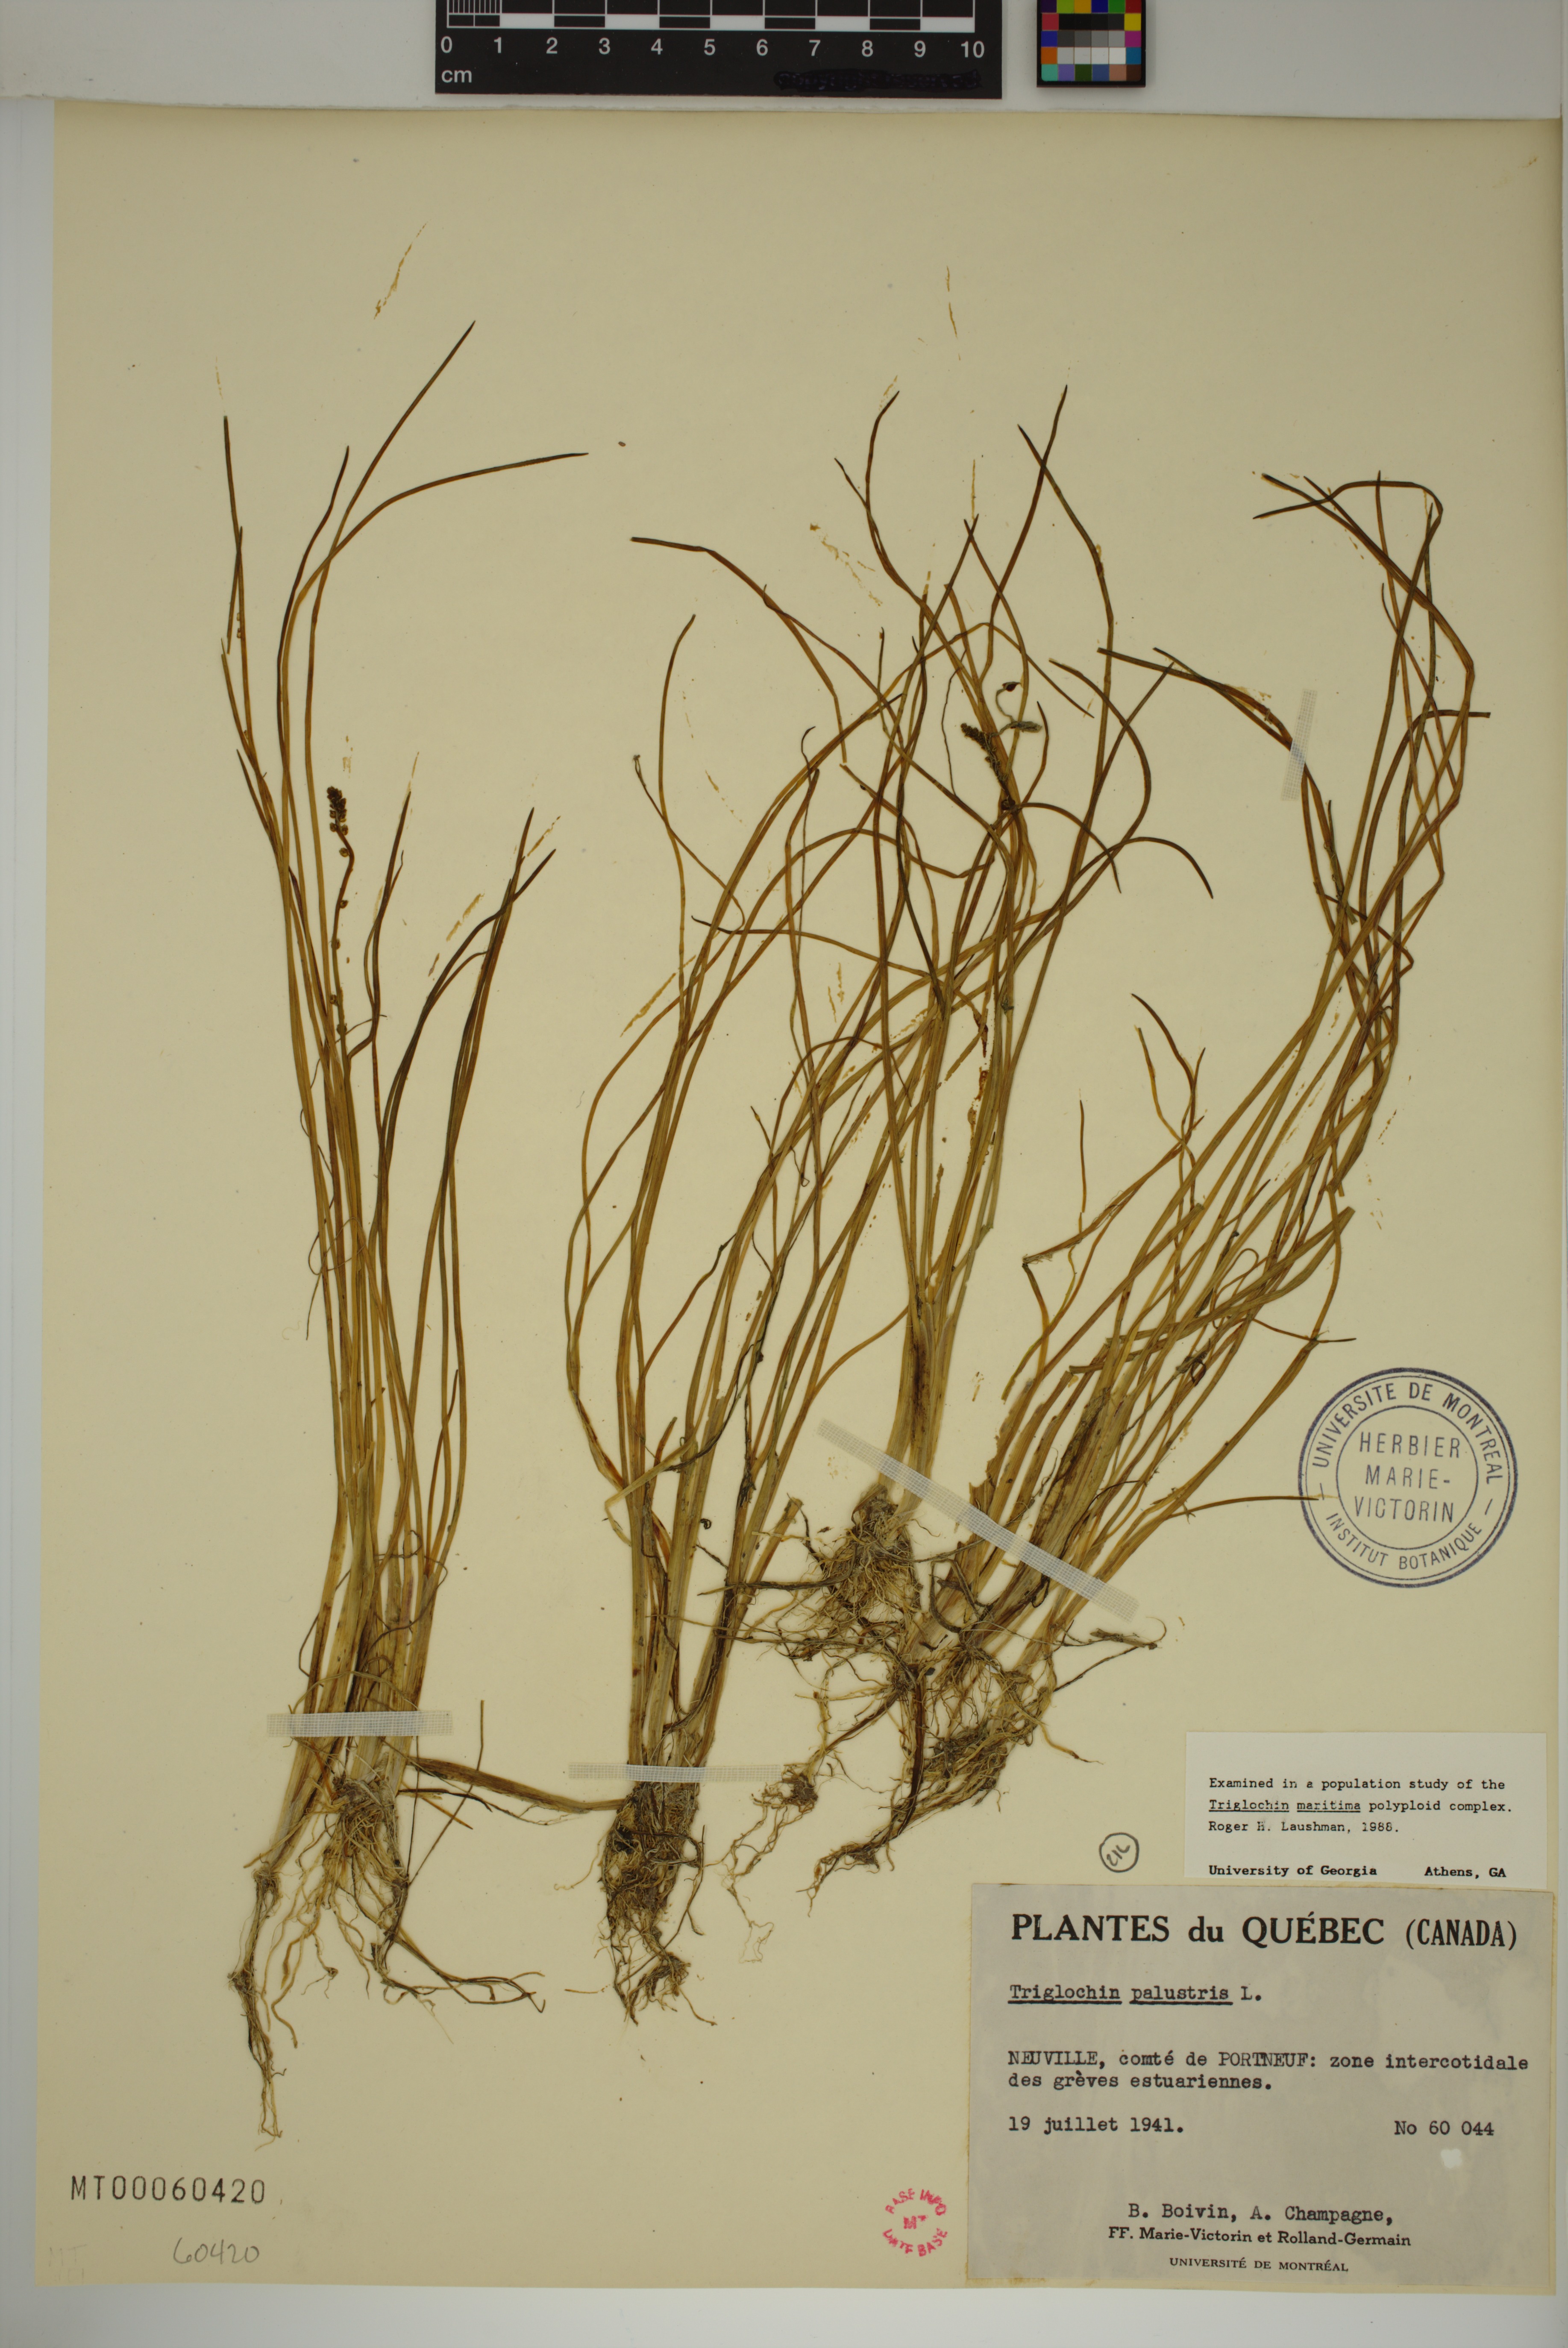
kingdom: Plantae
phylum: Tracheophyta
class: Liliopsida
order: Alismatales
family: Juncaginaceae
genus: Triglochin
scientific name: Triglochin palustris
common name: Marsh arrowgrass
